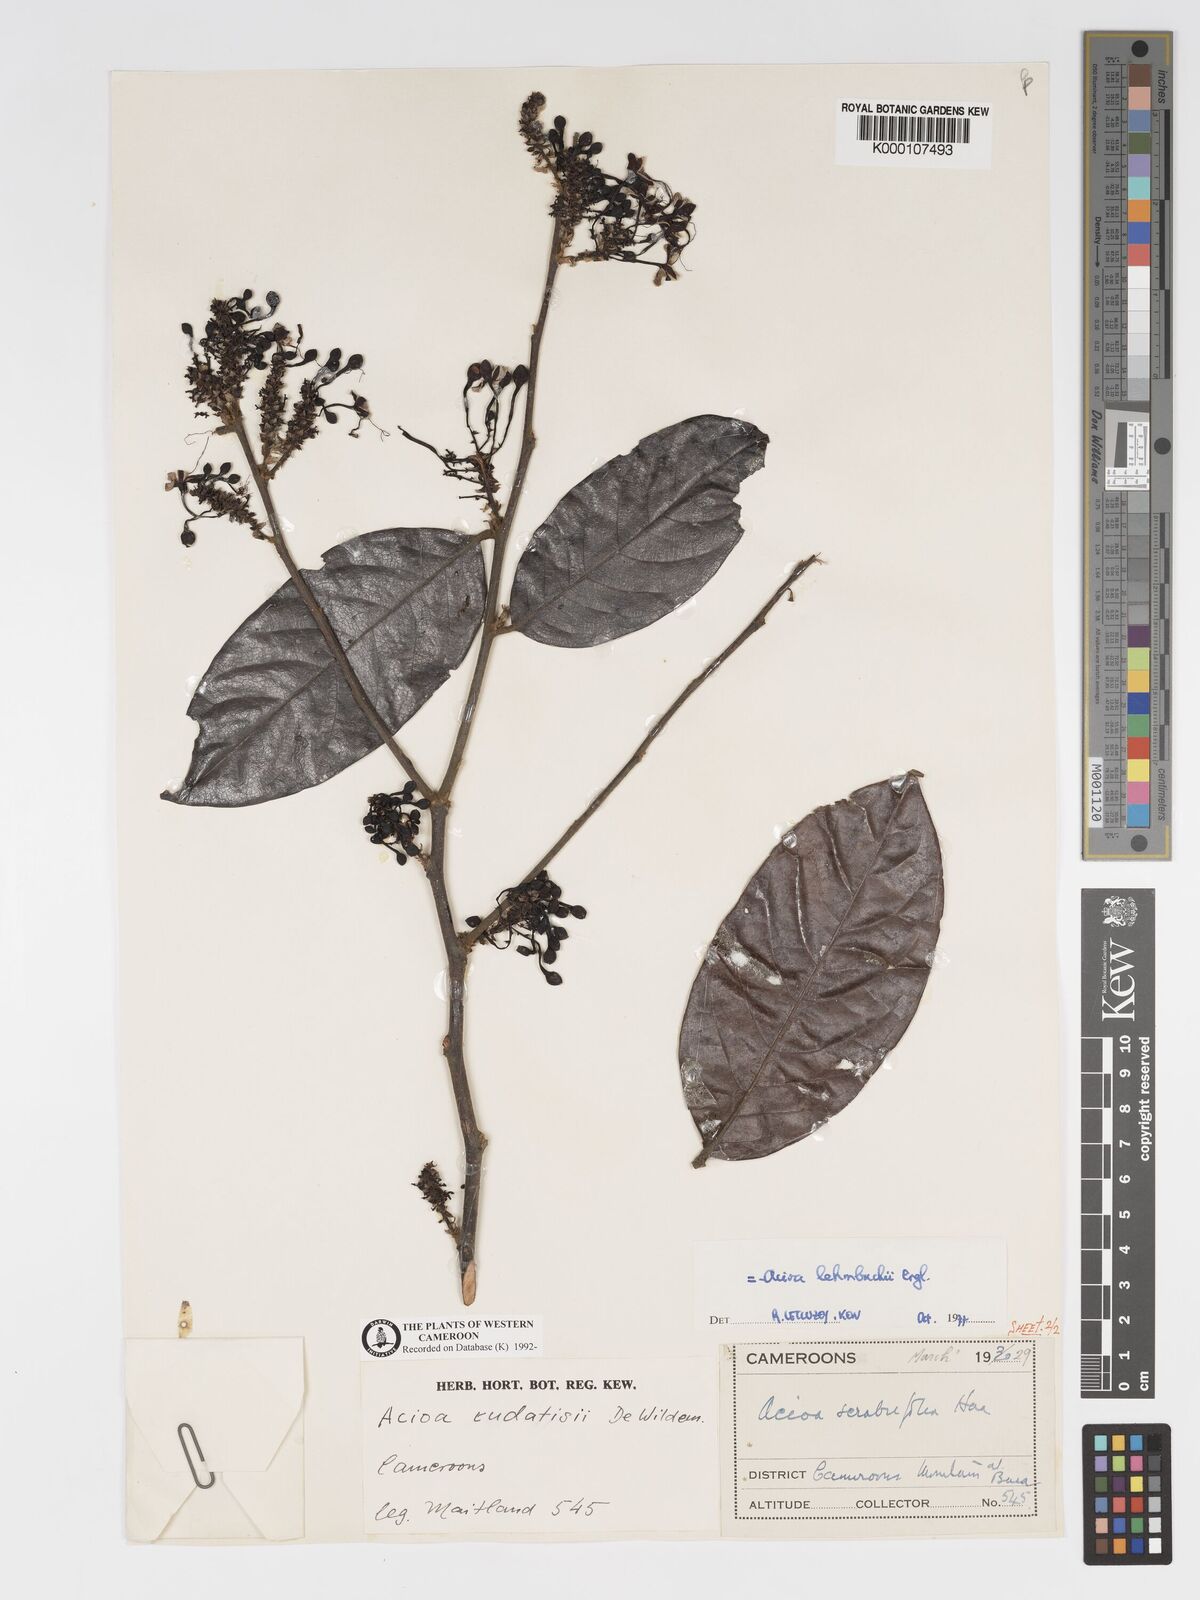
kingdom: Plantae
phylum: Tracheophyta
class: Magnoliopsida
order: Malpighiales
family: Chrysobalanaceae
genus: Dactyladenia
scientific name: Dactyladenia lehmbachii
